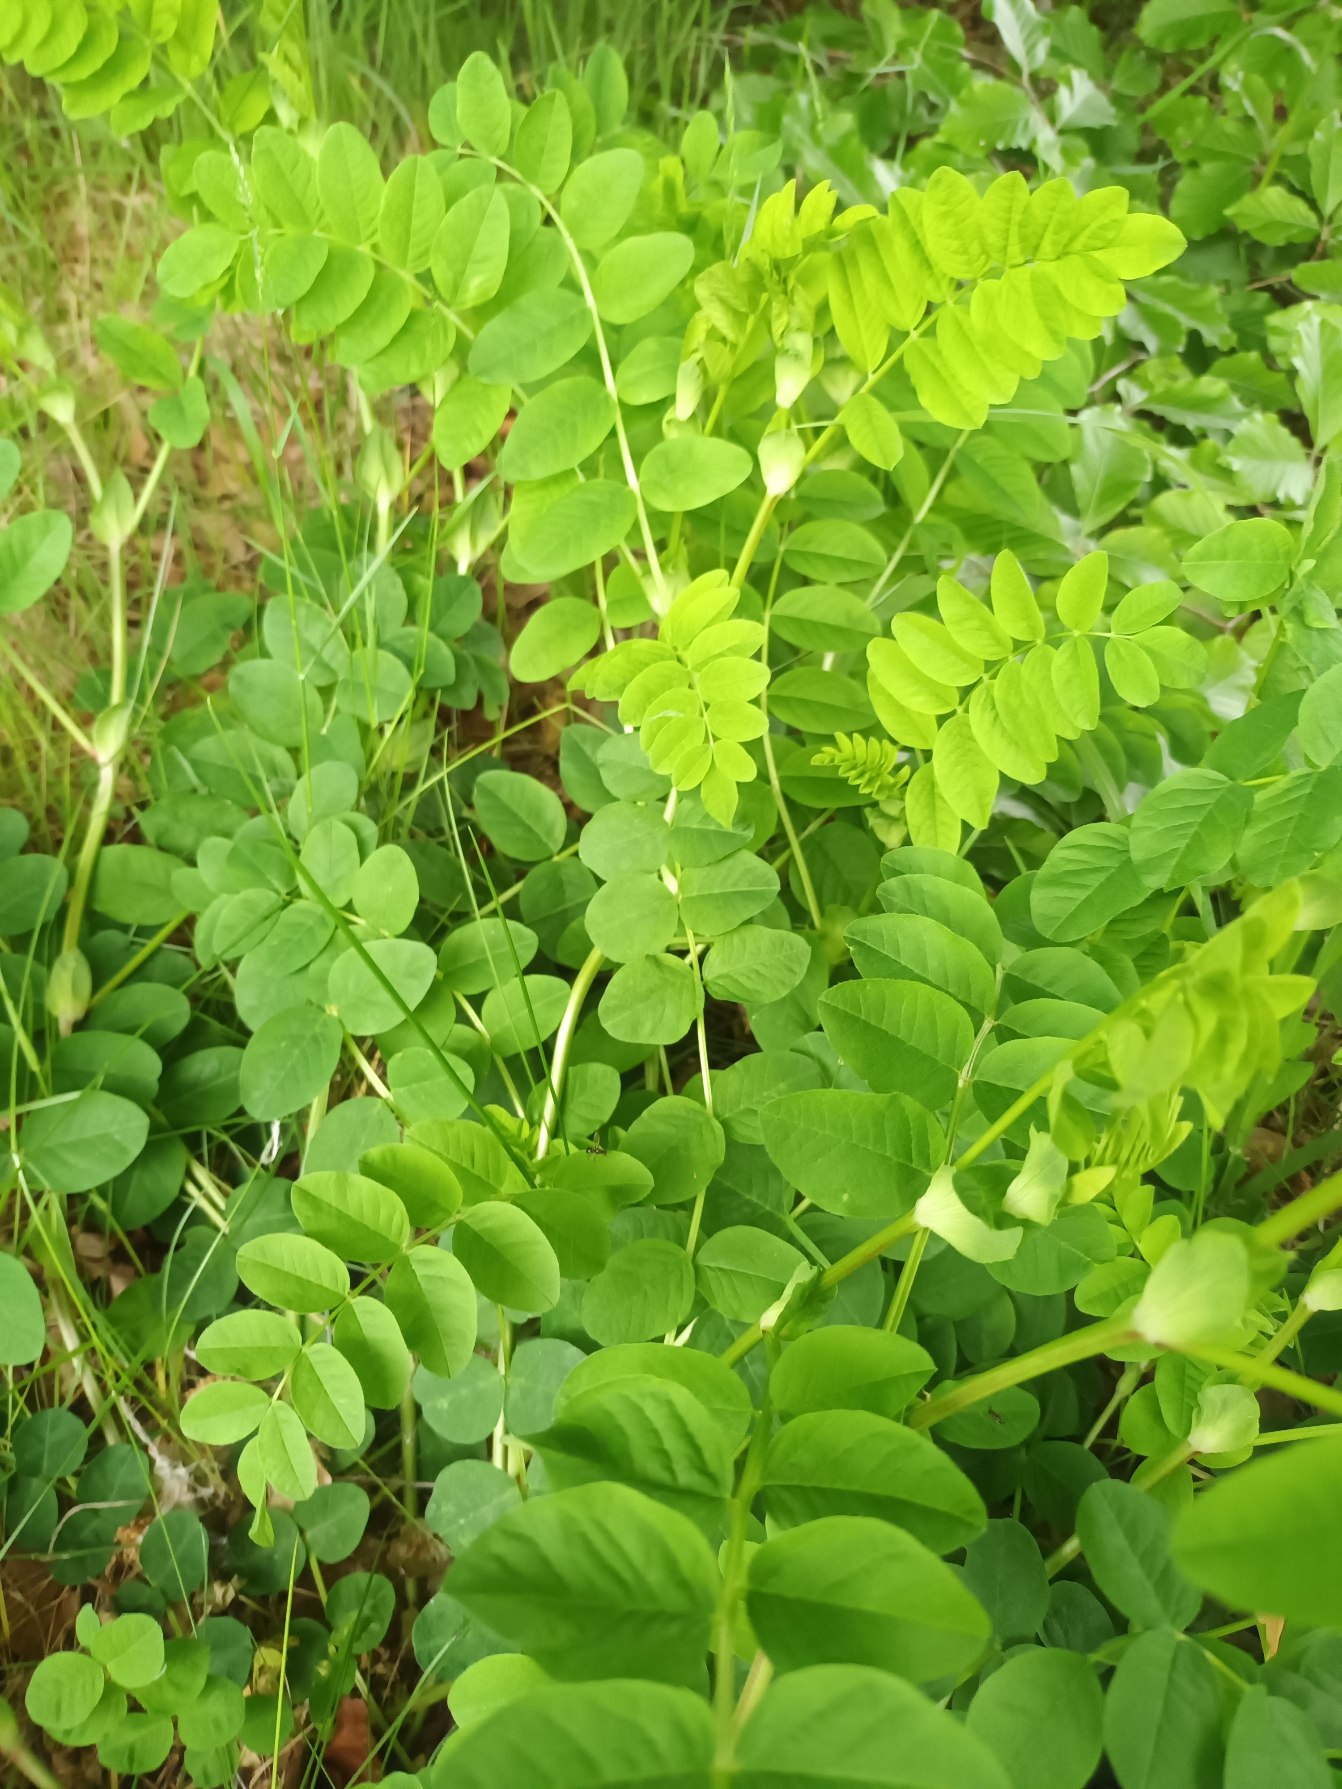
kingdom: Plantae
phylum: Tracheophyta
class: Magnoliopsida
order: Fabales
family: Fabaceae
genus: Astragalus
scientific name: Astragalus glycyphyllos
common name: Sød astragel
